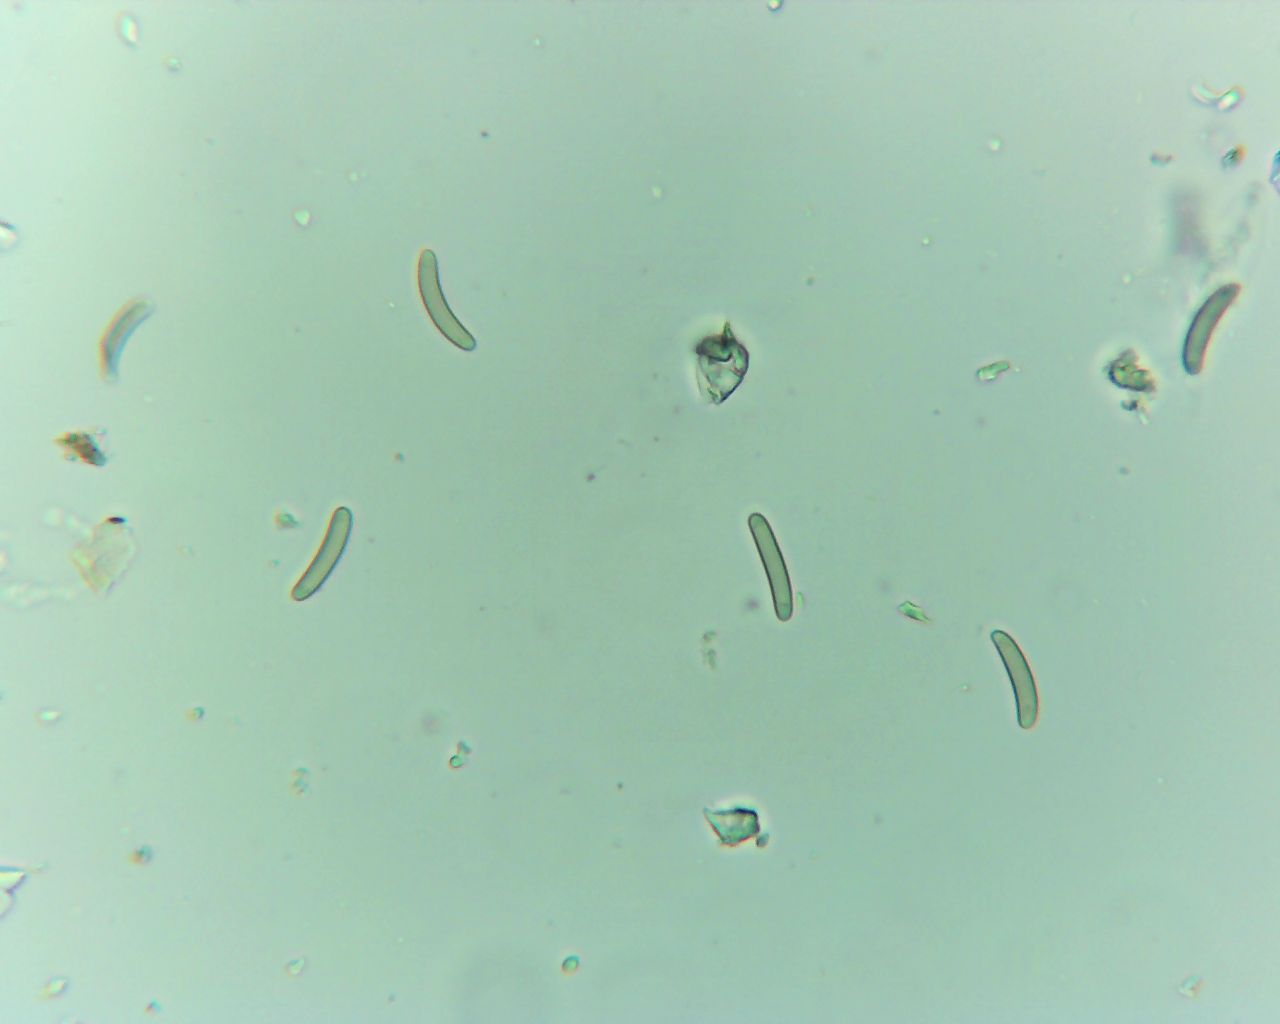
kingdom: Fungi
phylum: Ascomycota
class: Sordariomycetes
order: Xylariales
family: Diatrypaceae
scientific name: Diatrypaceae
